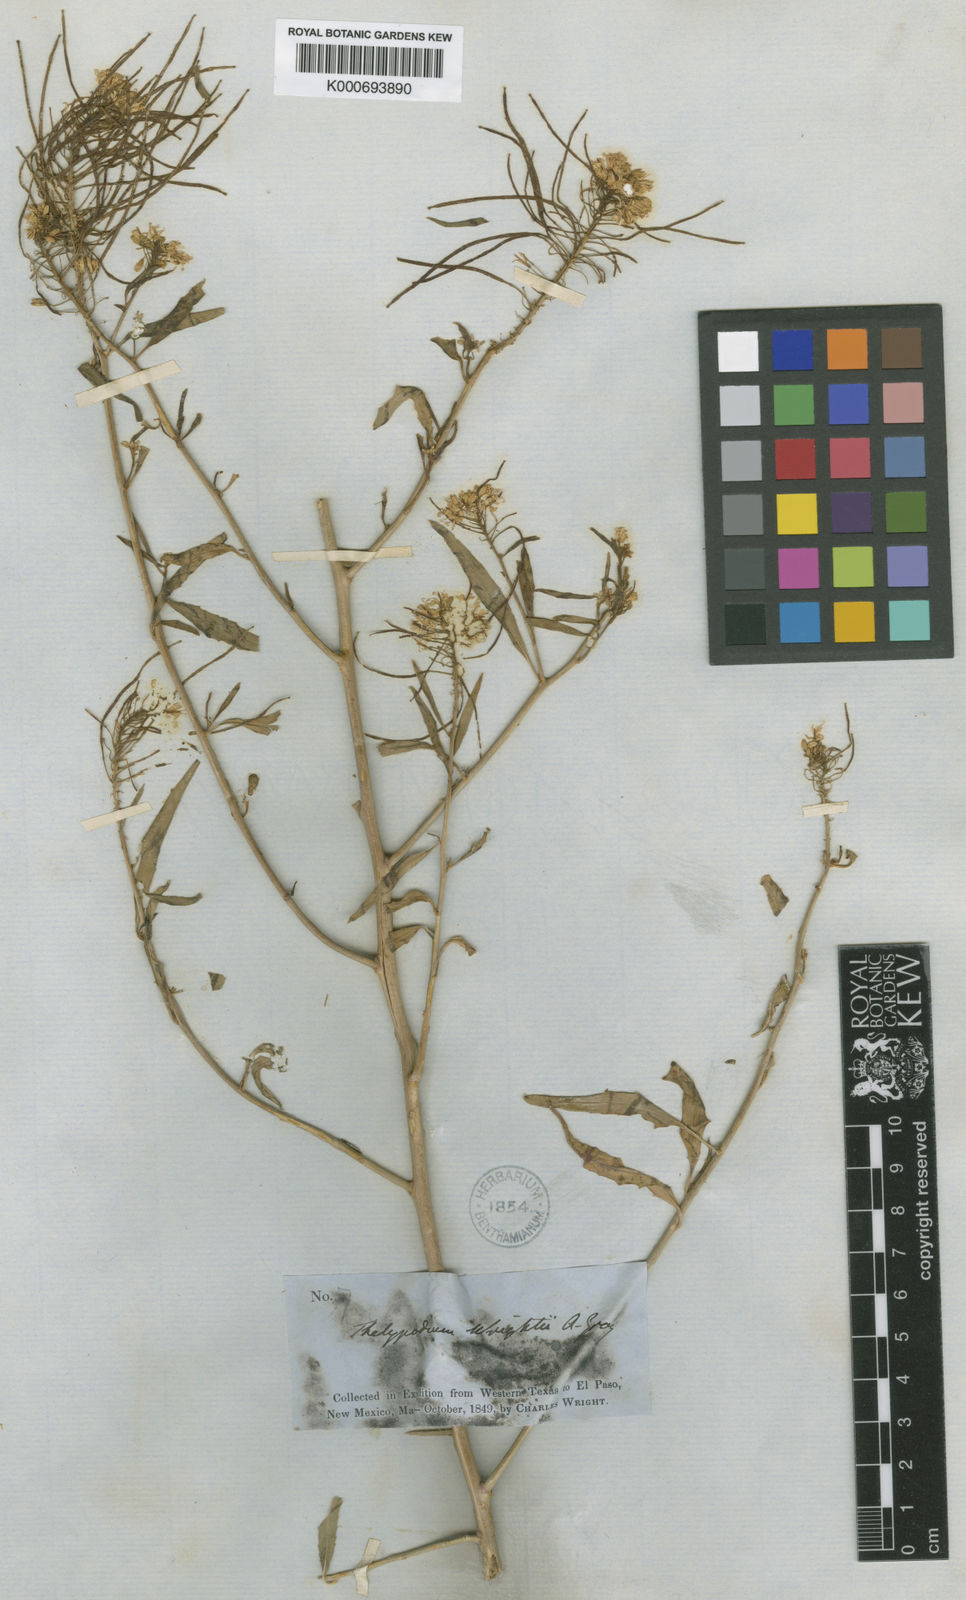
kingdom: Plantae
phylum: Tracheophyta
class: Magnoliopsida
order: Brassicales
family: Brassicaceae
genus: Thelypodium
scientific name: Thelypodium wrightii
